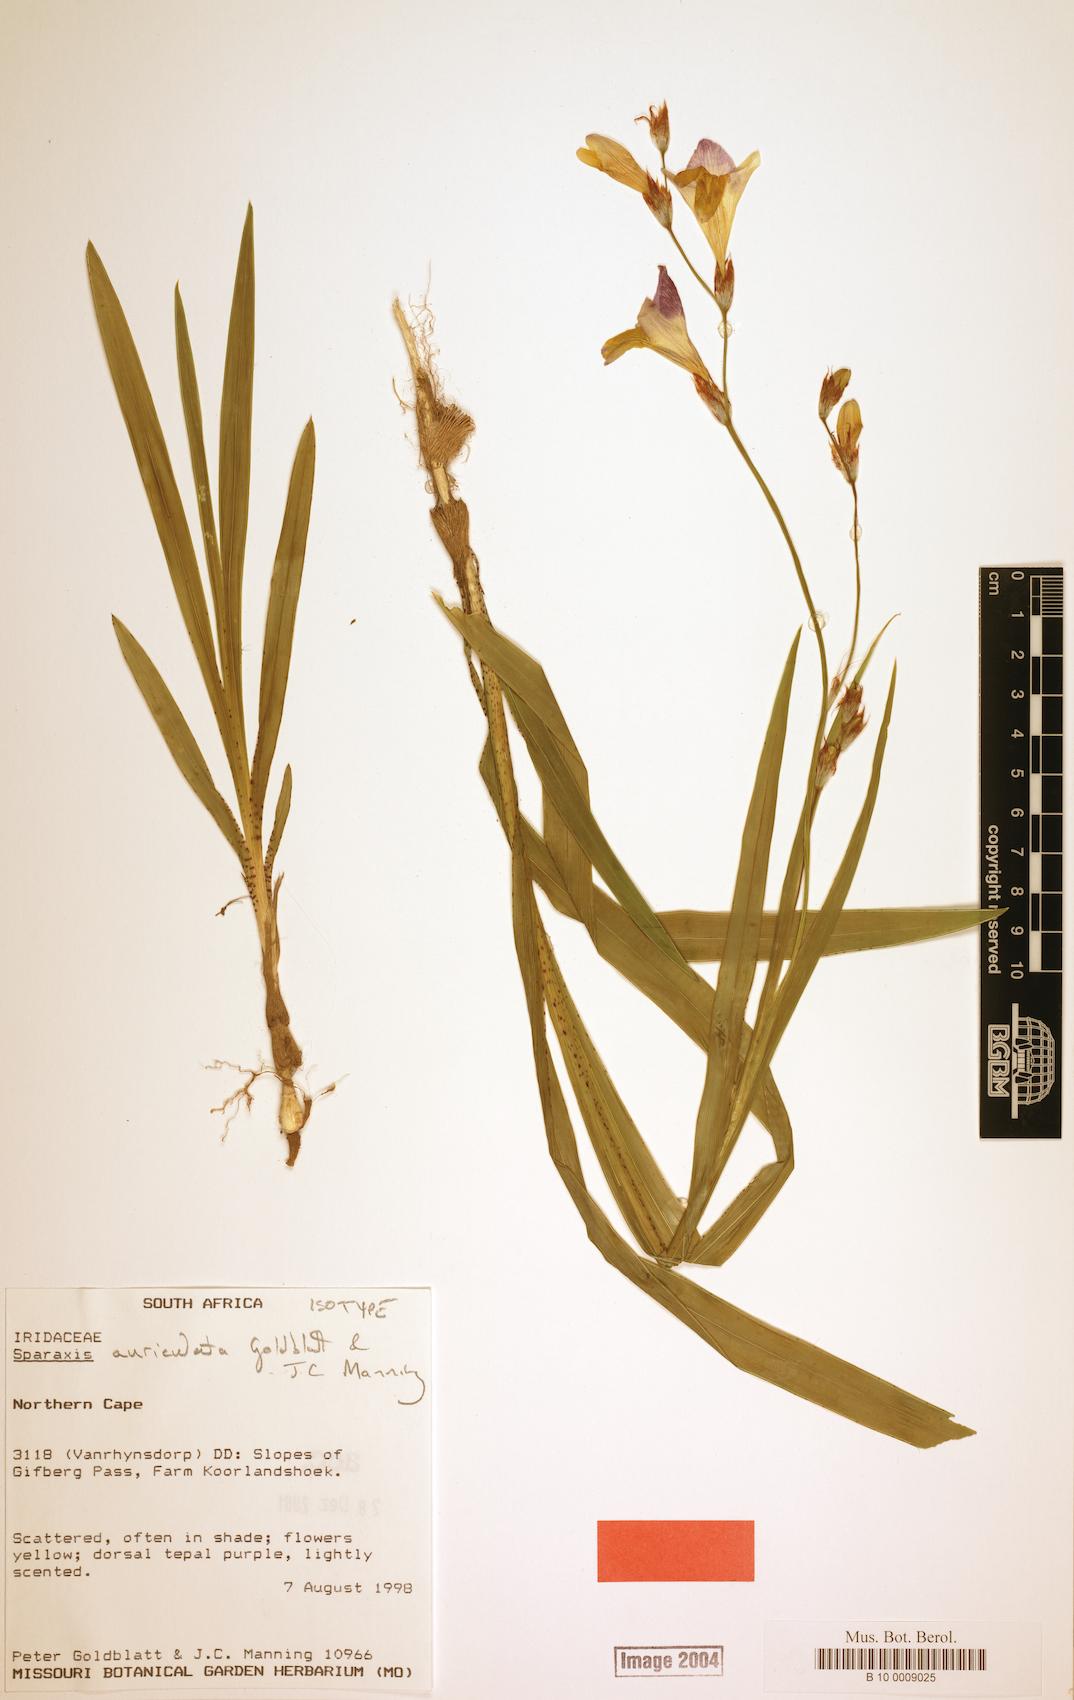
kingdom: Plantae
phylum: Tracheophyta
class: Liliopsida
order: Asparagales
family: Iridaceae
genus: Sparaxis
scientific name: Sparaxis auriculata
